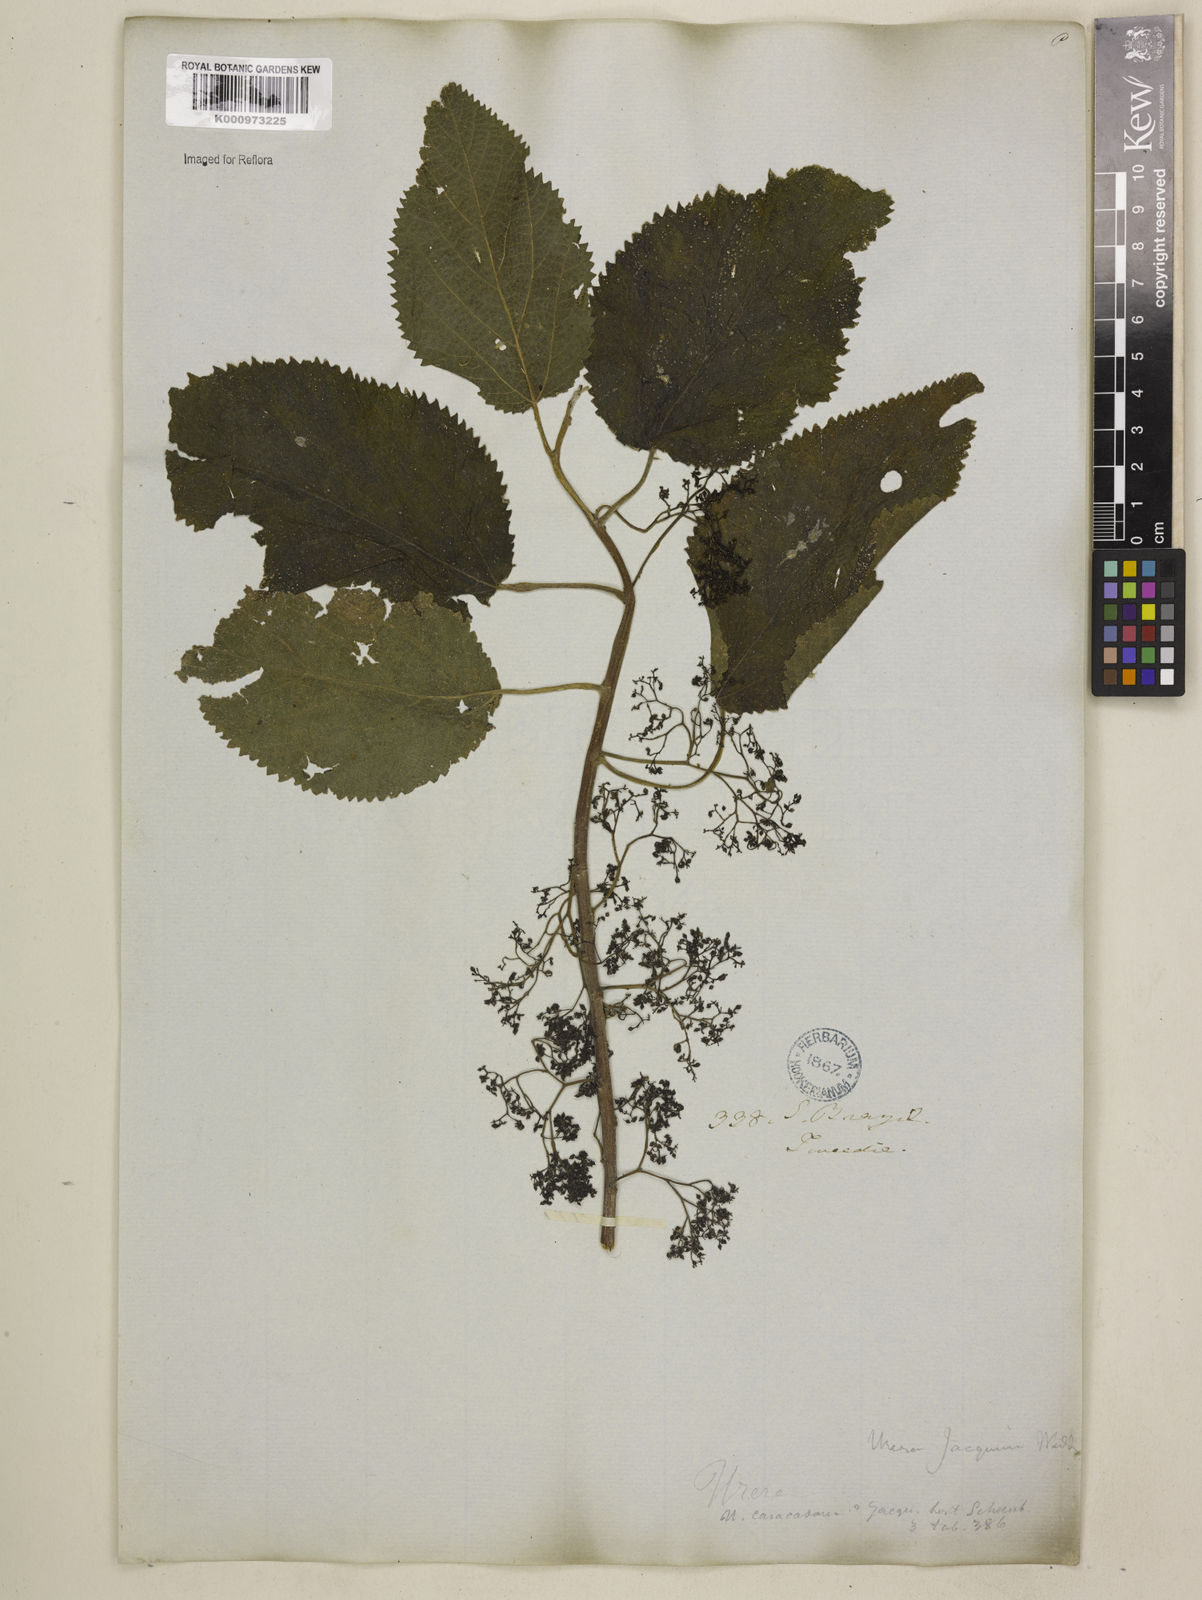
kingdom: Plantae
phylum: Tracheophyta
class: Magnoliopsida
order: Rosales
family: Urticaceae
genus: Urera
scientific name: Urera caracasana
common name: Flameberry
